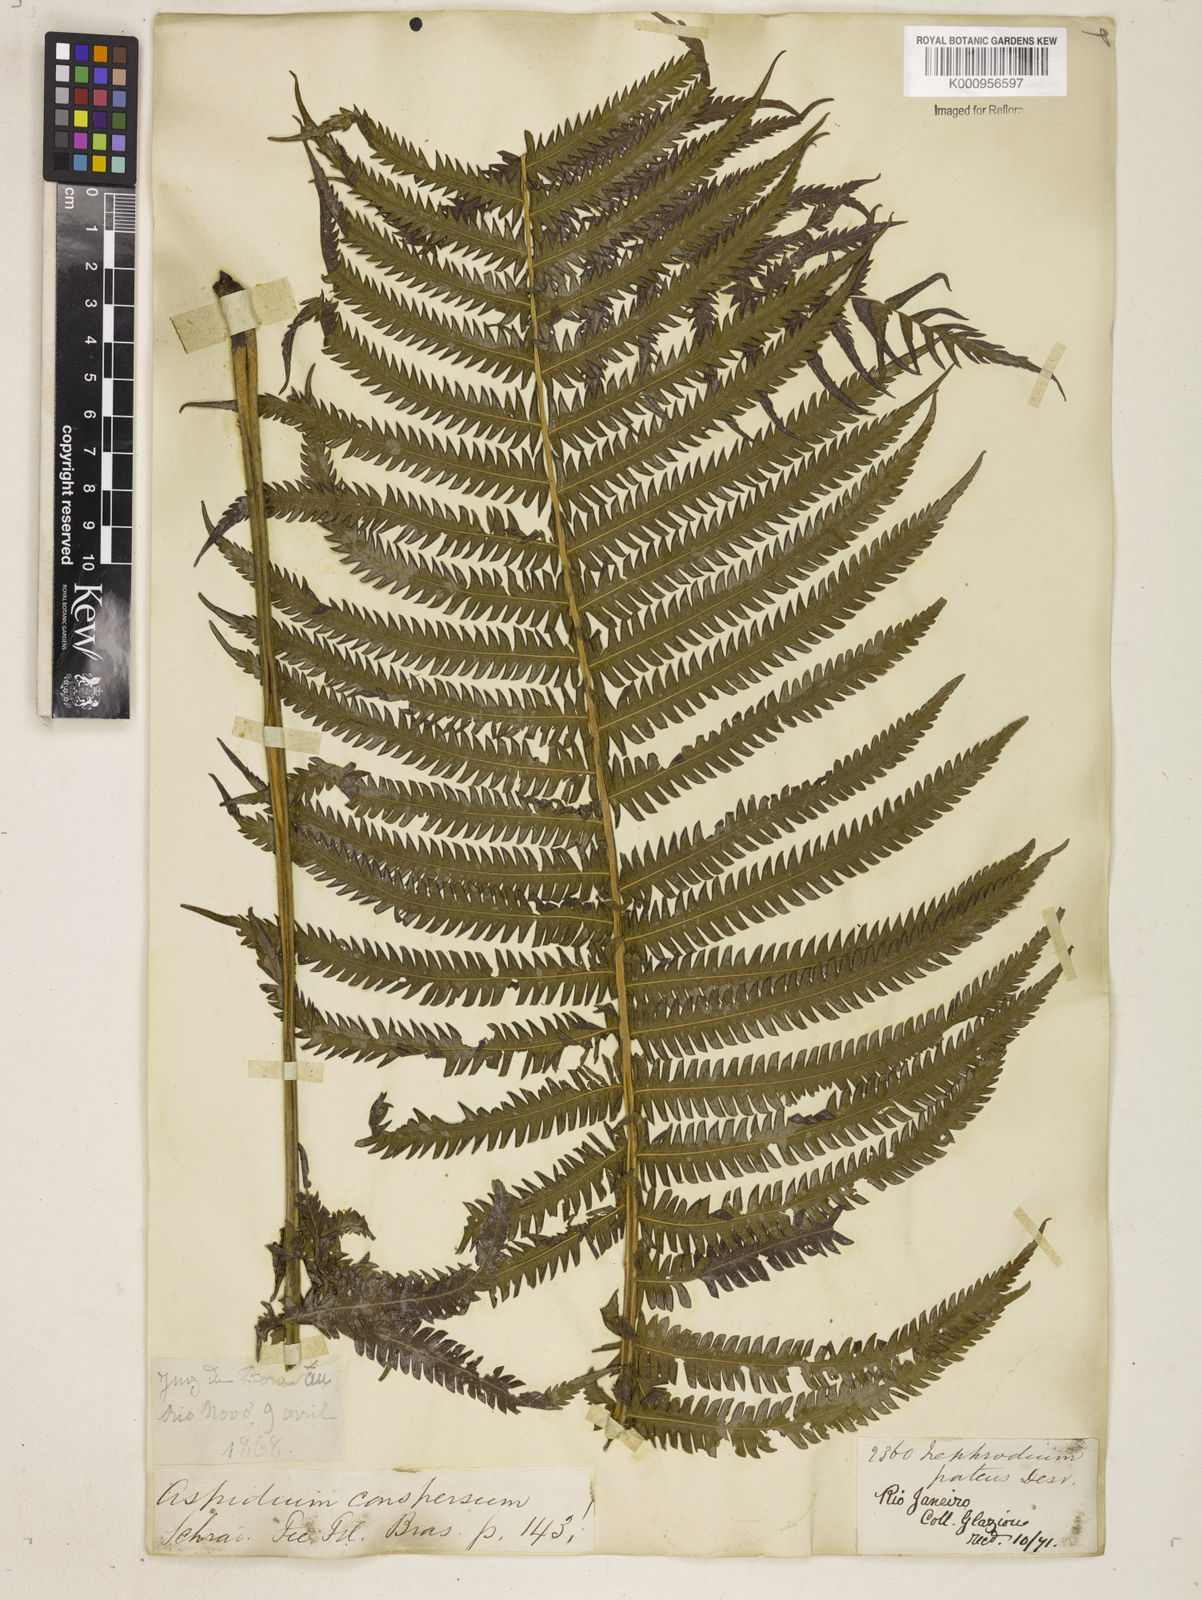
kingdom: Plantae
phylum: Tracheophyta
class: Polypodiopsida
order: Polypodiales
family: Thelypteridaceae
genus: Pelazoneuron
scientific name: Pelazoneuron patens
